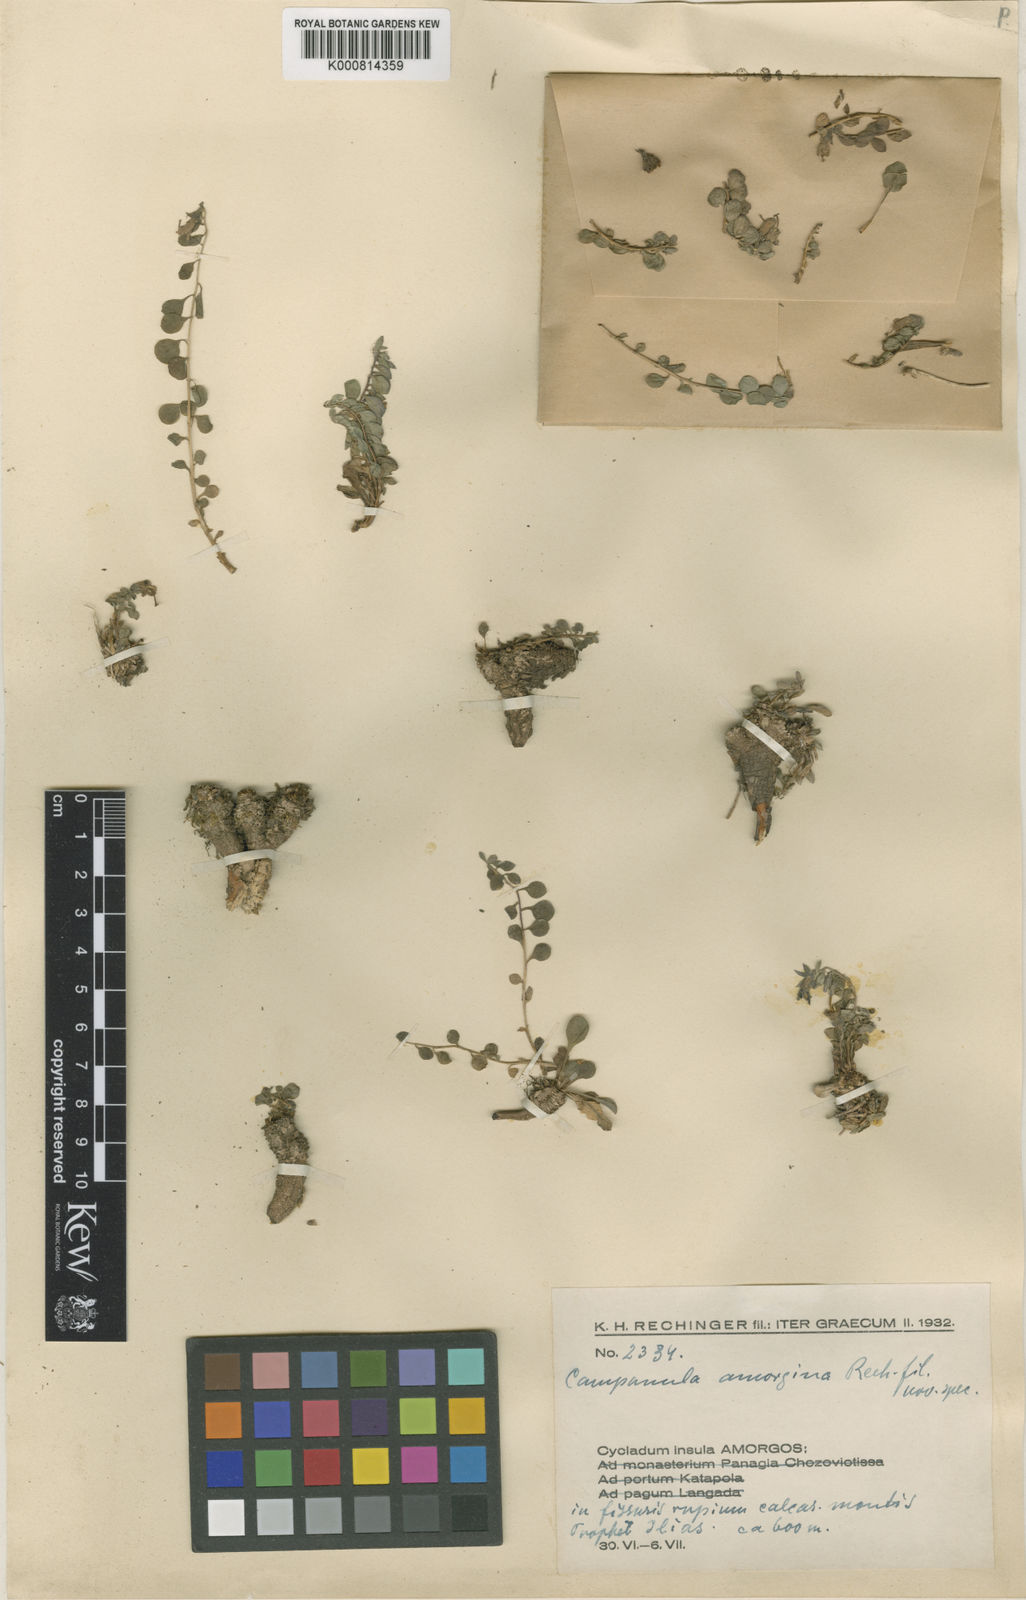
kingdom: Plantae
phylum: Tracheophyta
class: Magnoliopsida
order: Asterales
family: Campanulaceae
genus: Campanula
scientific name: Campanula heterophylla
